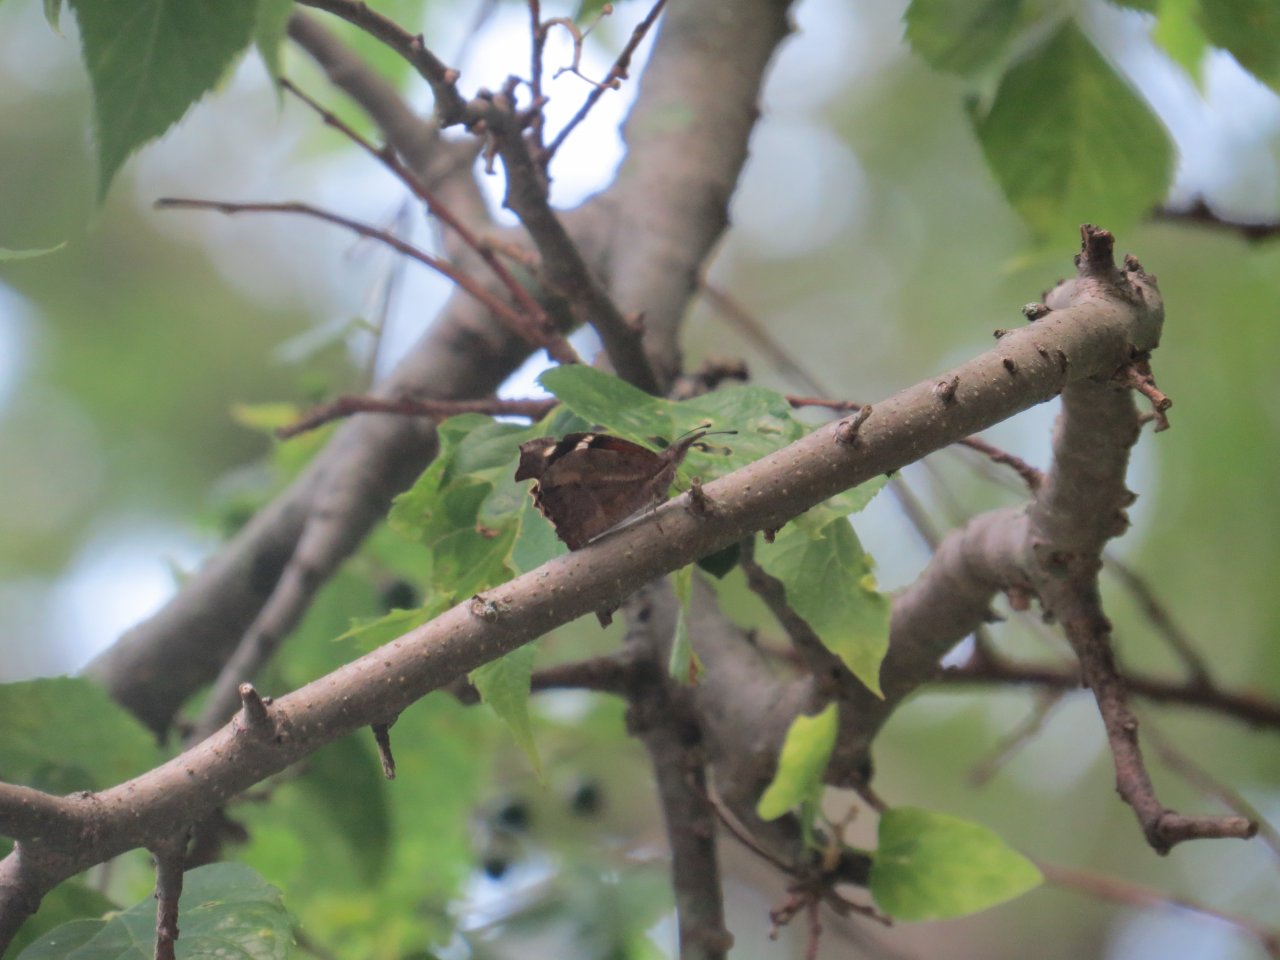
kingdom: Animalia
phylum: Arthropoda
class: Insecta
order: Lepidoptera
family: Nymphalidae
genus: Libytheana
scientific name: Libytheana carinenta
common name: American Snout
